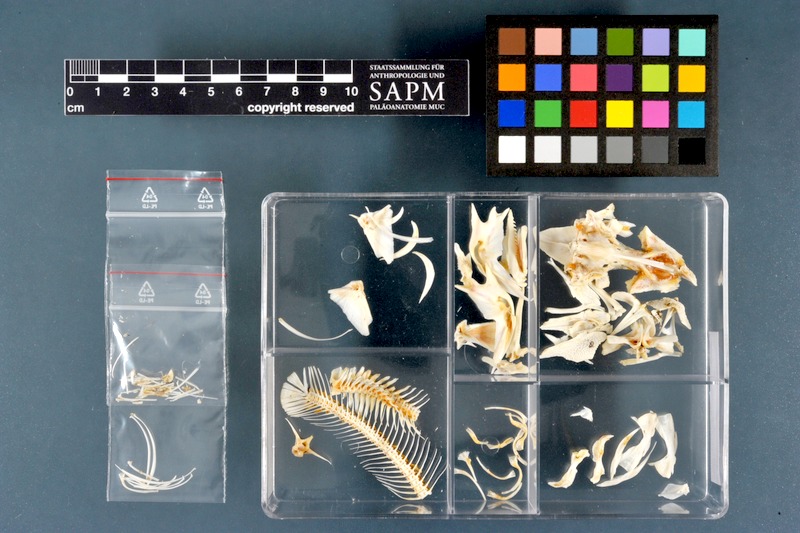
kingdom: Animalia
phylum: Chordata
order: Siluriformes
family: Claroteidae
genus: Auchenoglanis
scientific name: Auchenoglanis occidentalis
